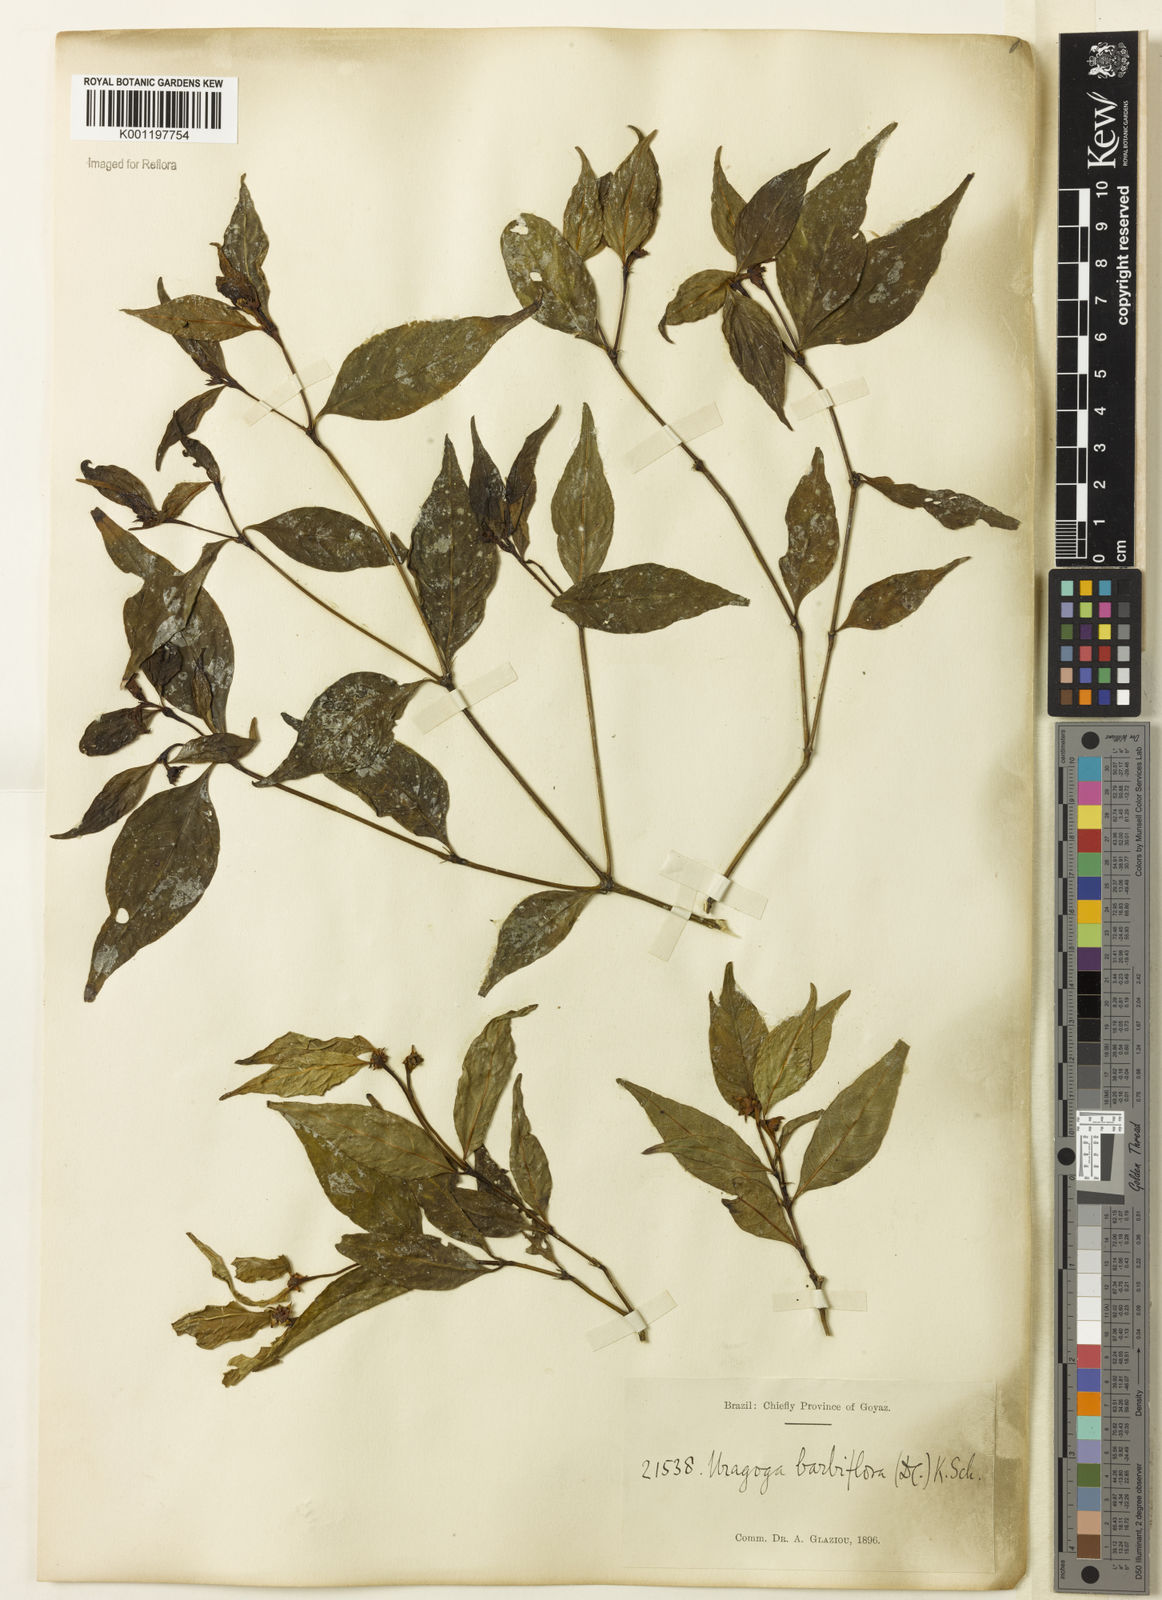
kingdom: Plantae
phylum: Tracheophyta
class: Magnoliopsida
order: Gentianales
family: Rubiaceae
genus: Palicourea
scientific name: Palicourea hoffmannseggiana
